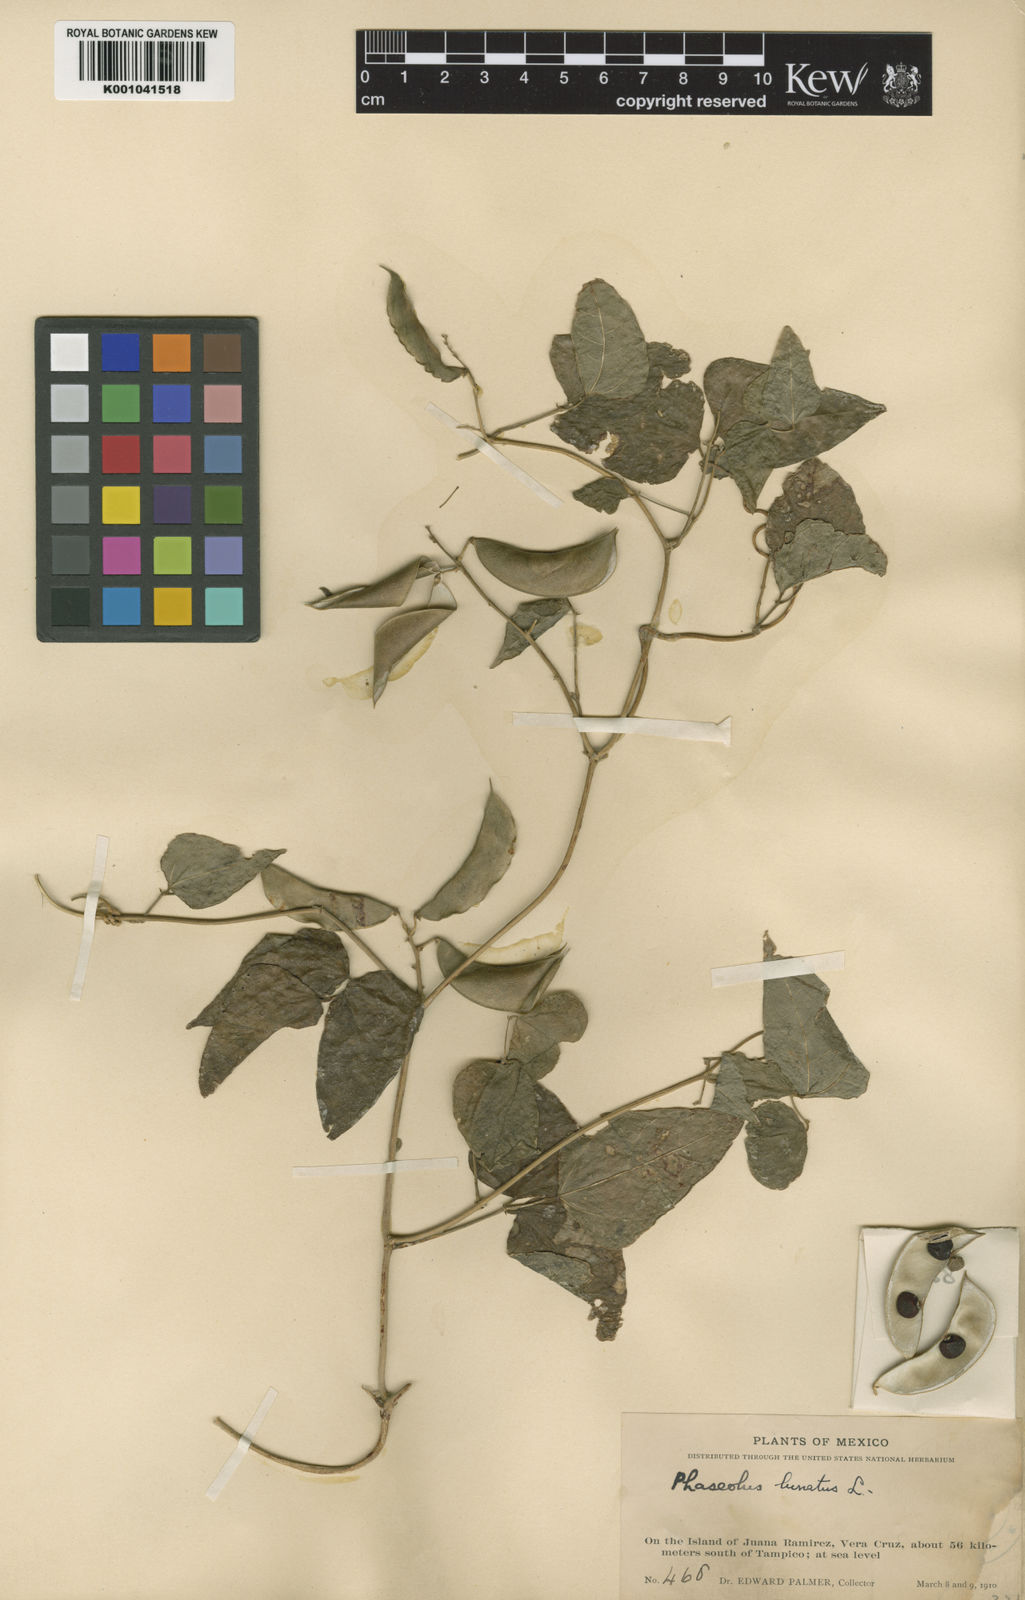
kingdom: Plantae
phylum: Tracheophyta
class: Magnoliopsida
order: Fabales
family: Fabaceae
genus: Phaseolus
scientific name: Phaseolus lunatus
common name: Sieva bean
